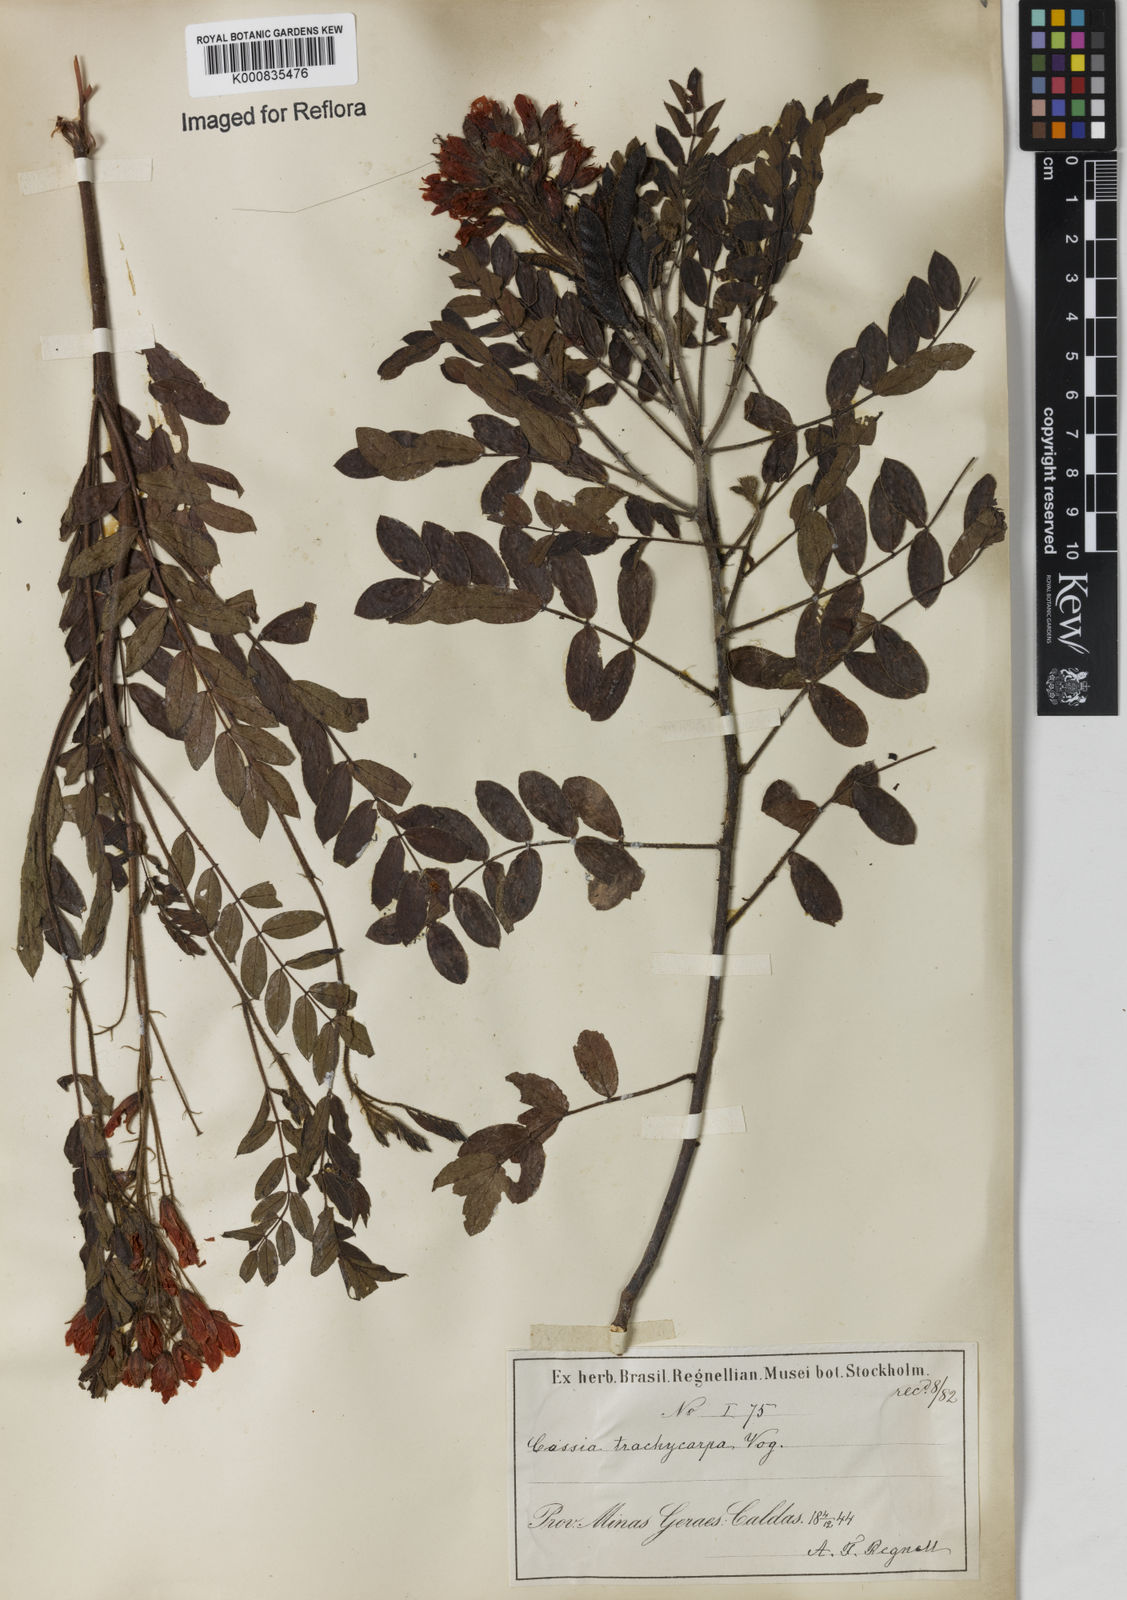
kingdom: Plantae
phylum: Tracheophyta
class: Magnoliopsida
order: Fabales
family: Fabaceae
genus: Chamaecrista
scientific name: Chamaecrista trachycarpa
